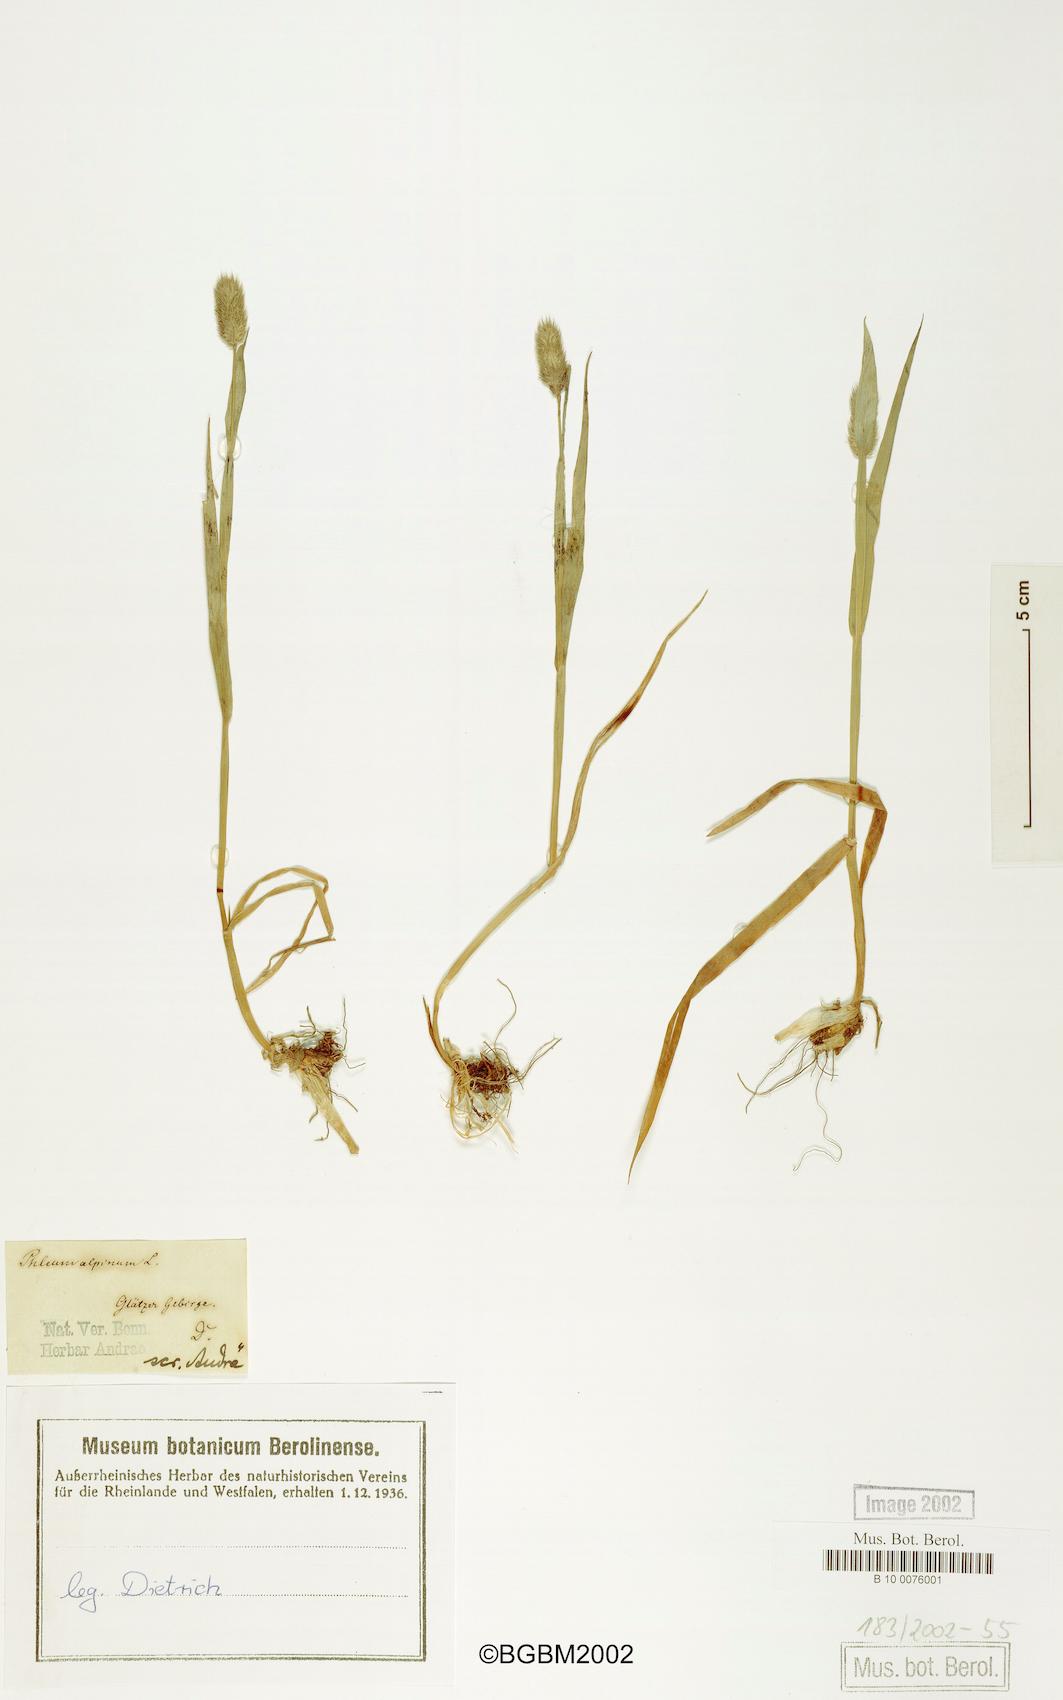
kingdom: Plantae
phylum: Tracheophyta
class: Liliopsida
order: Poales
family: Poaceae
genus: Phleum
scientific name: Phleum alpinum
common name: Alpine cat's-tail
